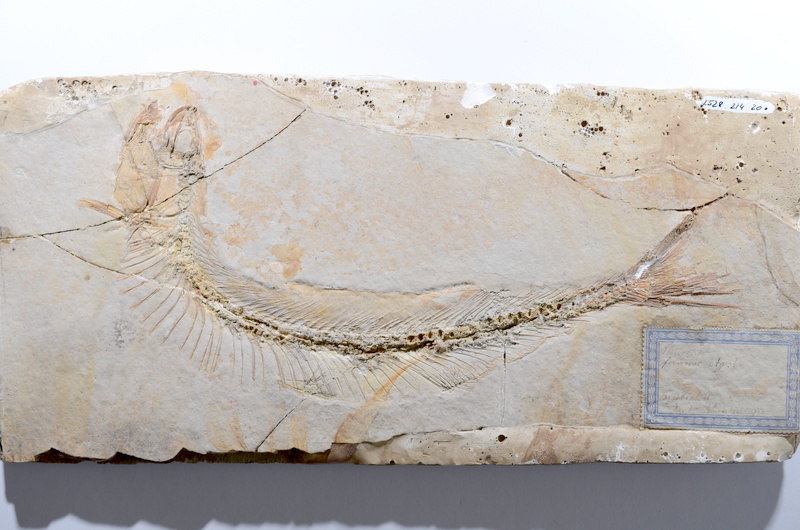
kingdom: Animalia
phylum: Chordata
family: Allothrissopidae
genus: Allothrissops
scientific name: Allothrissops
